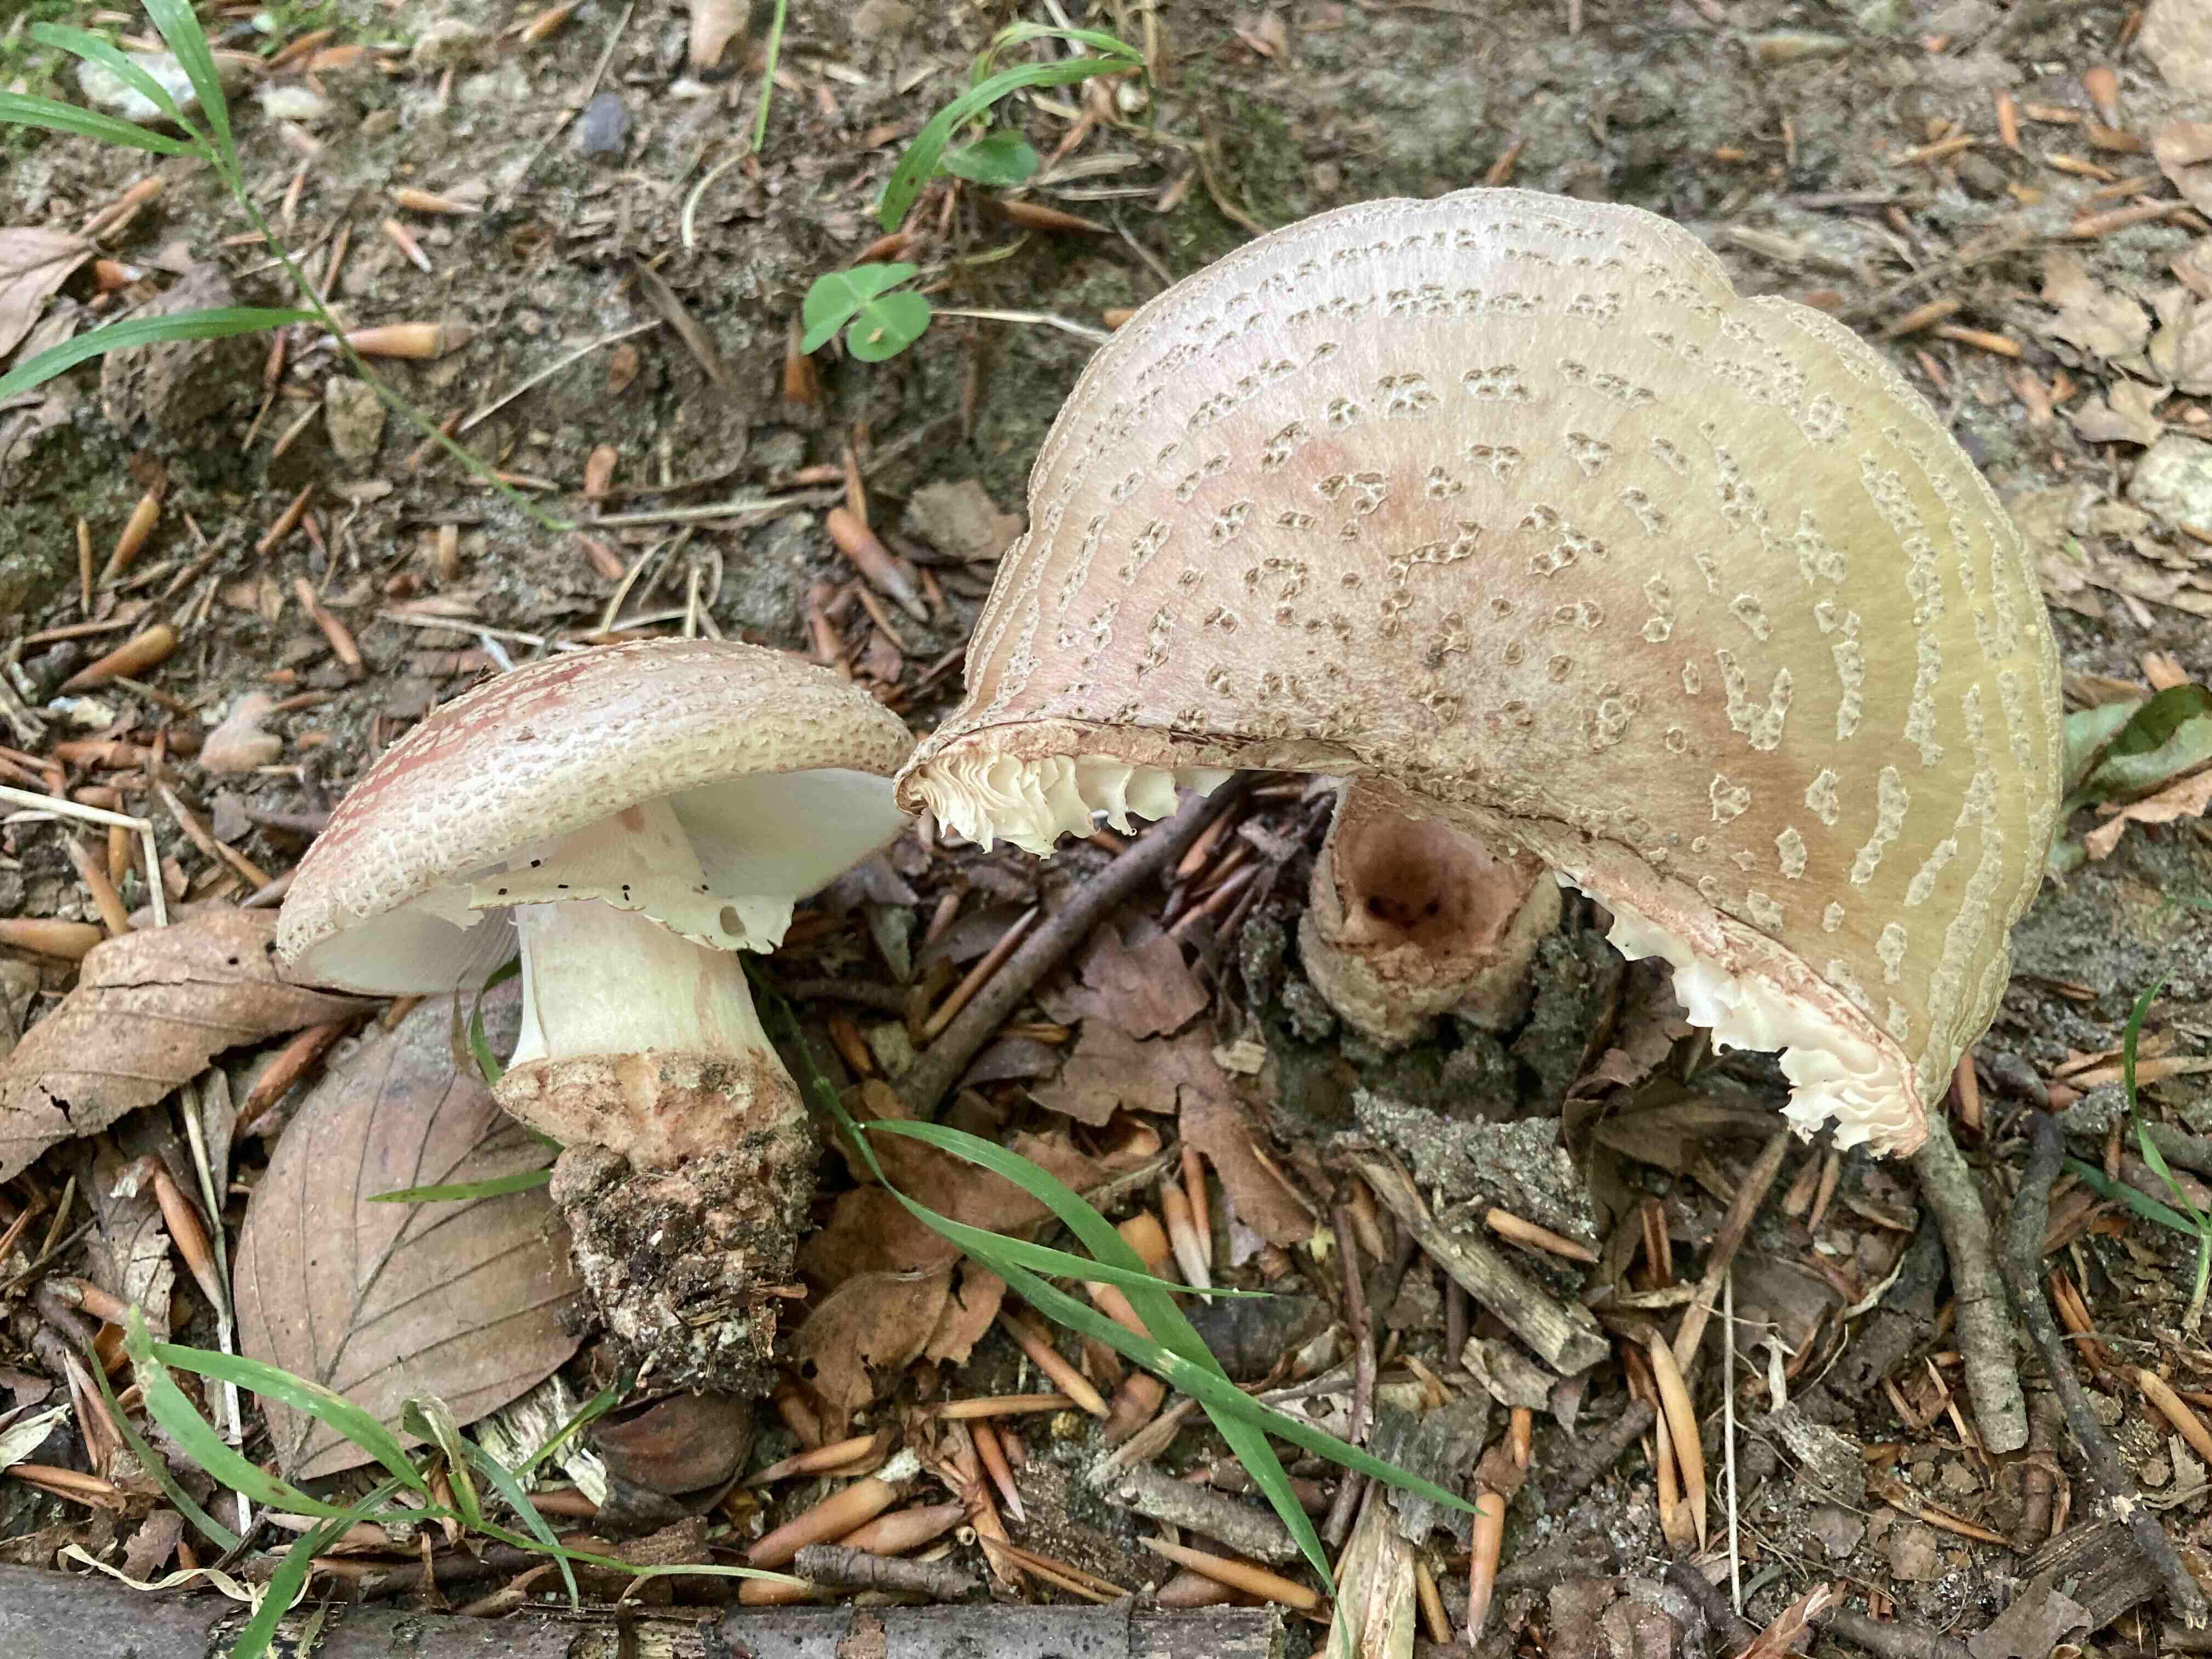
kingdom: Fungi
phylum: Basidiomycota
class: Agaricomycetes
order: Agaricales
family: Amanitaceae
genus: Amanita
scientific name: Amanita rubescens
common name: rødmende fluesvamp
